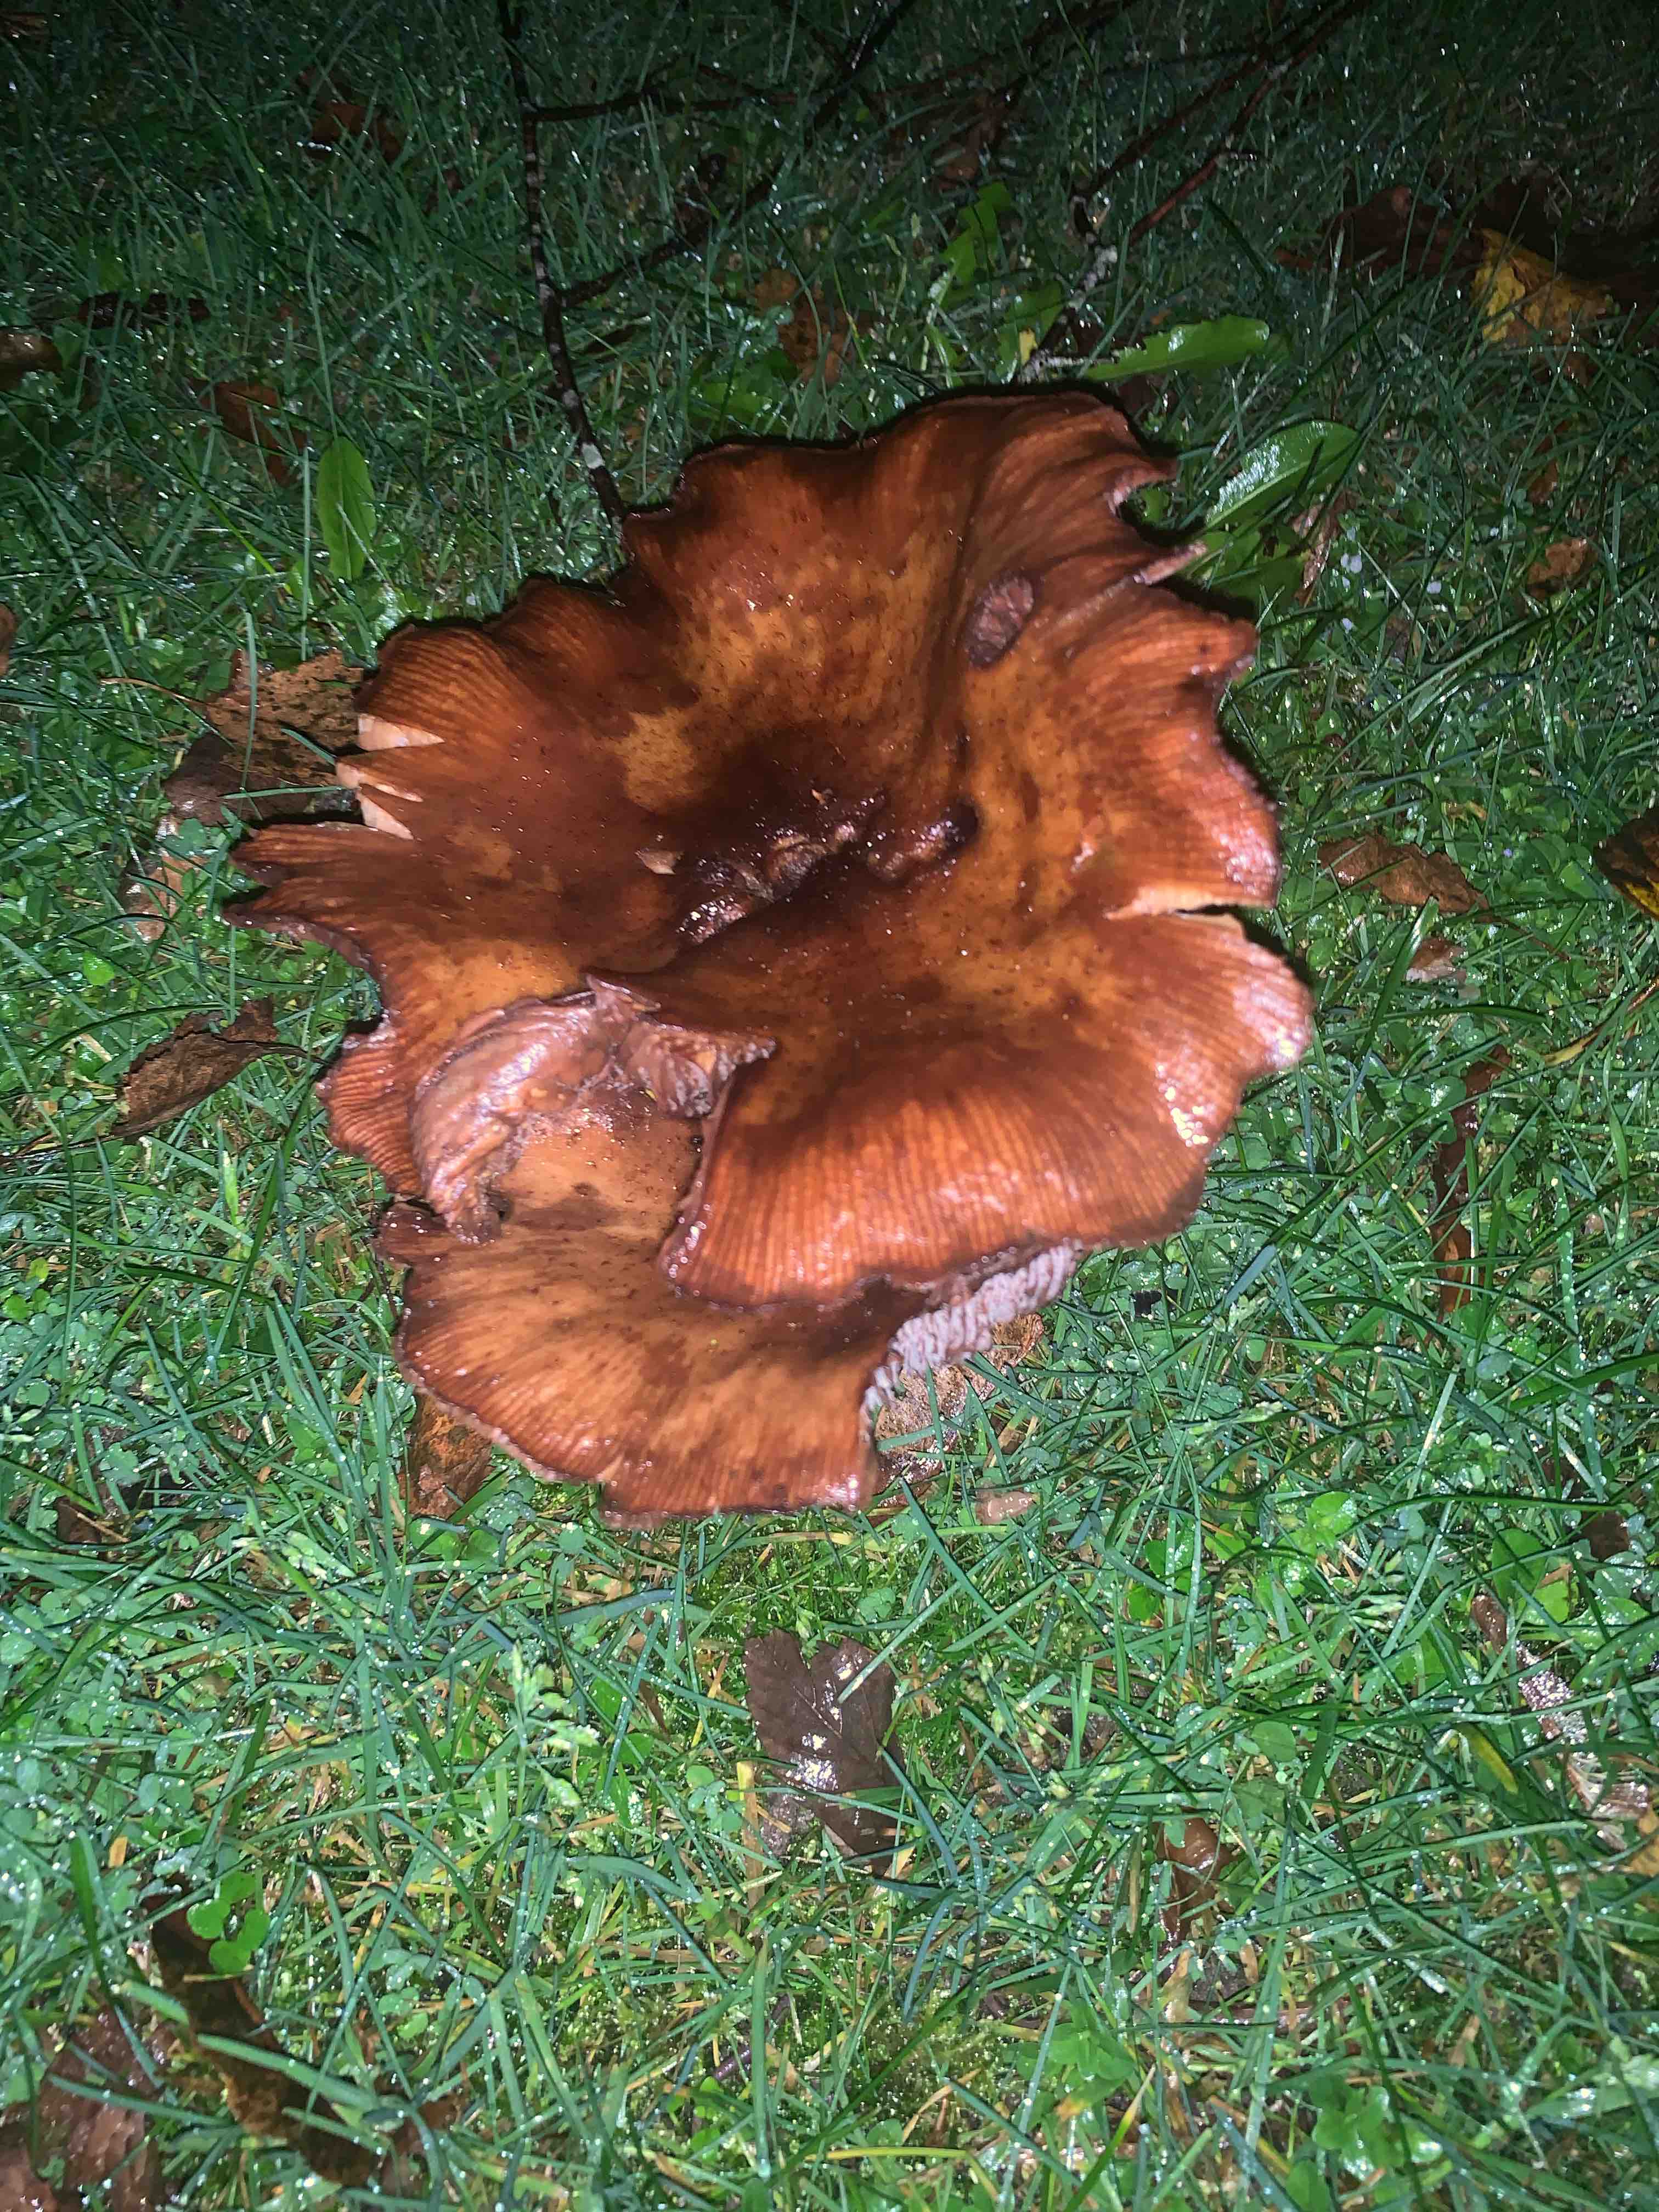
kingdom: Fungi
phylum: Basidiomycota
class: Agaricomycetes
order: Agaricales
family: Physalacriaceae
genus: Armillaria
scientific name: Armillaria
